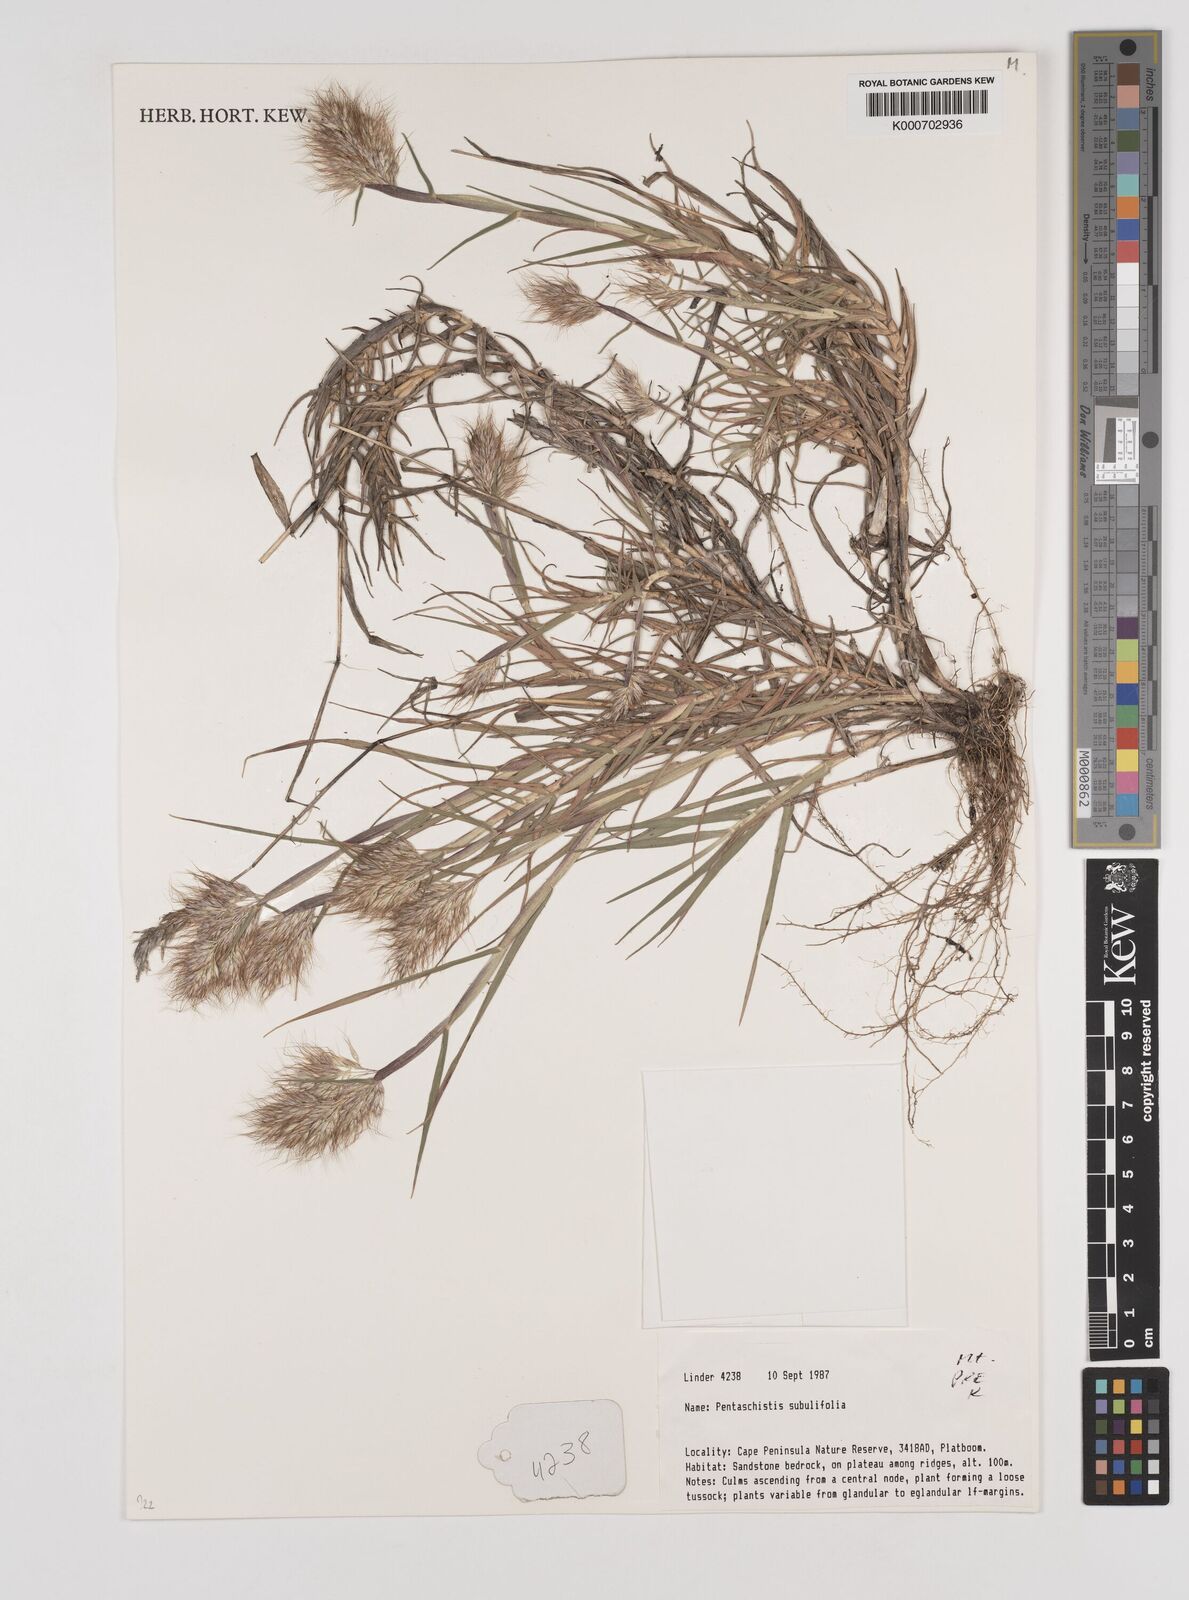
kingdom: Plantae
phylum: Tracheophyta
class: Liliopsida
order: Poales
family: Poaceae
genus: Pentameris
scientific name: Pentameris scabra
